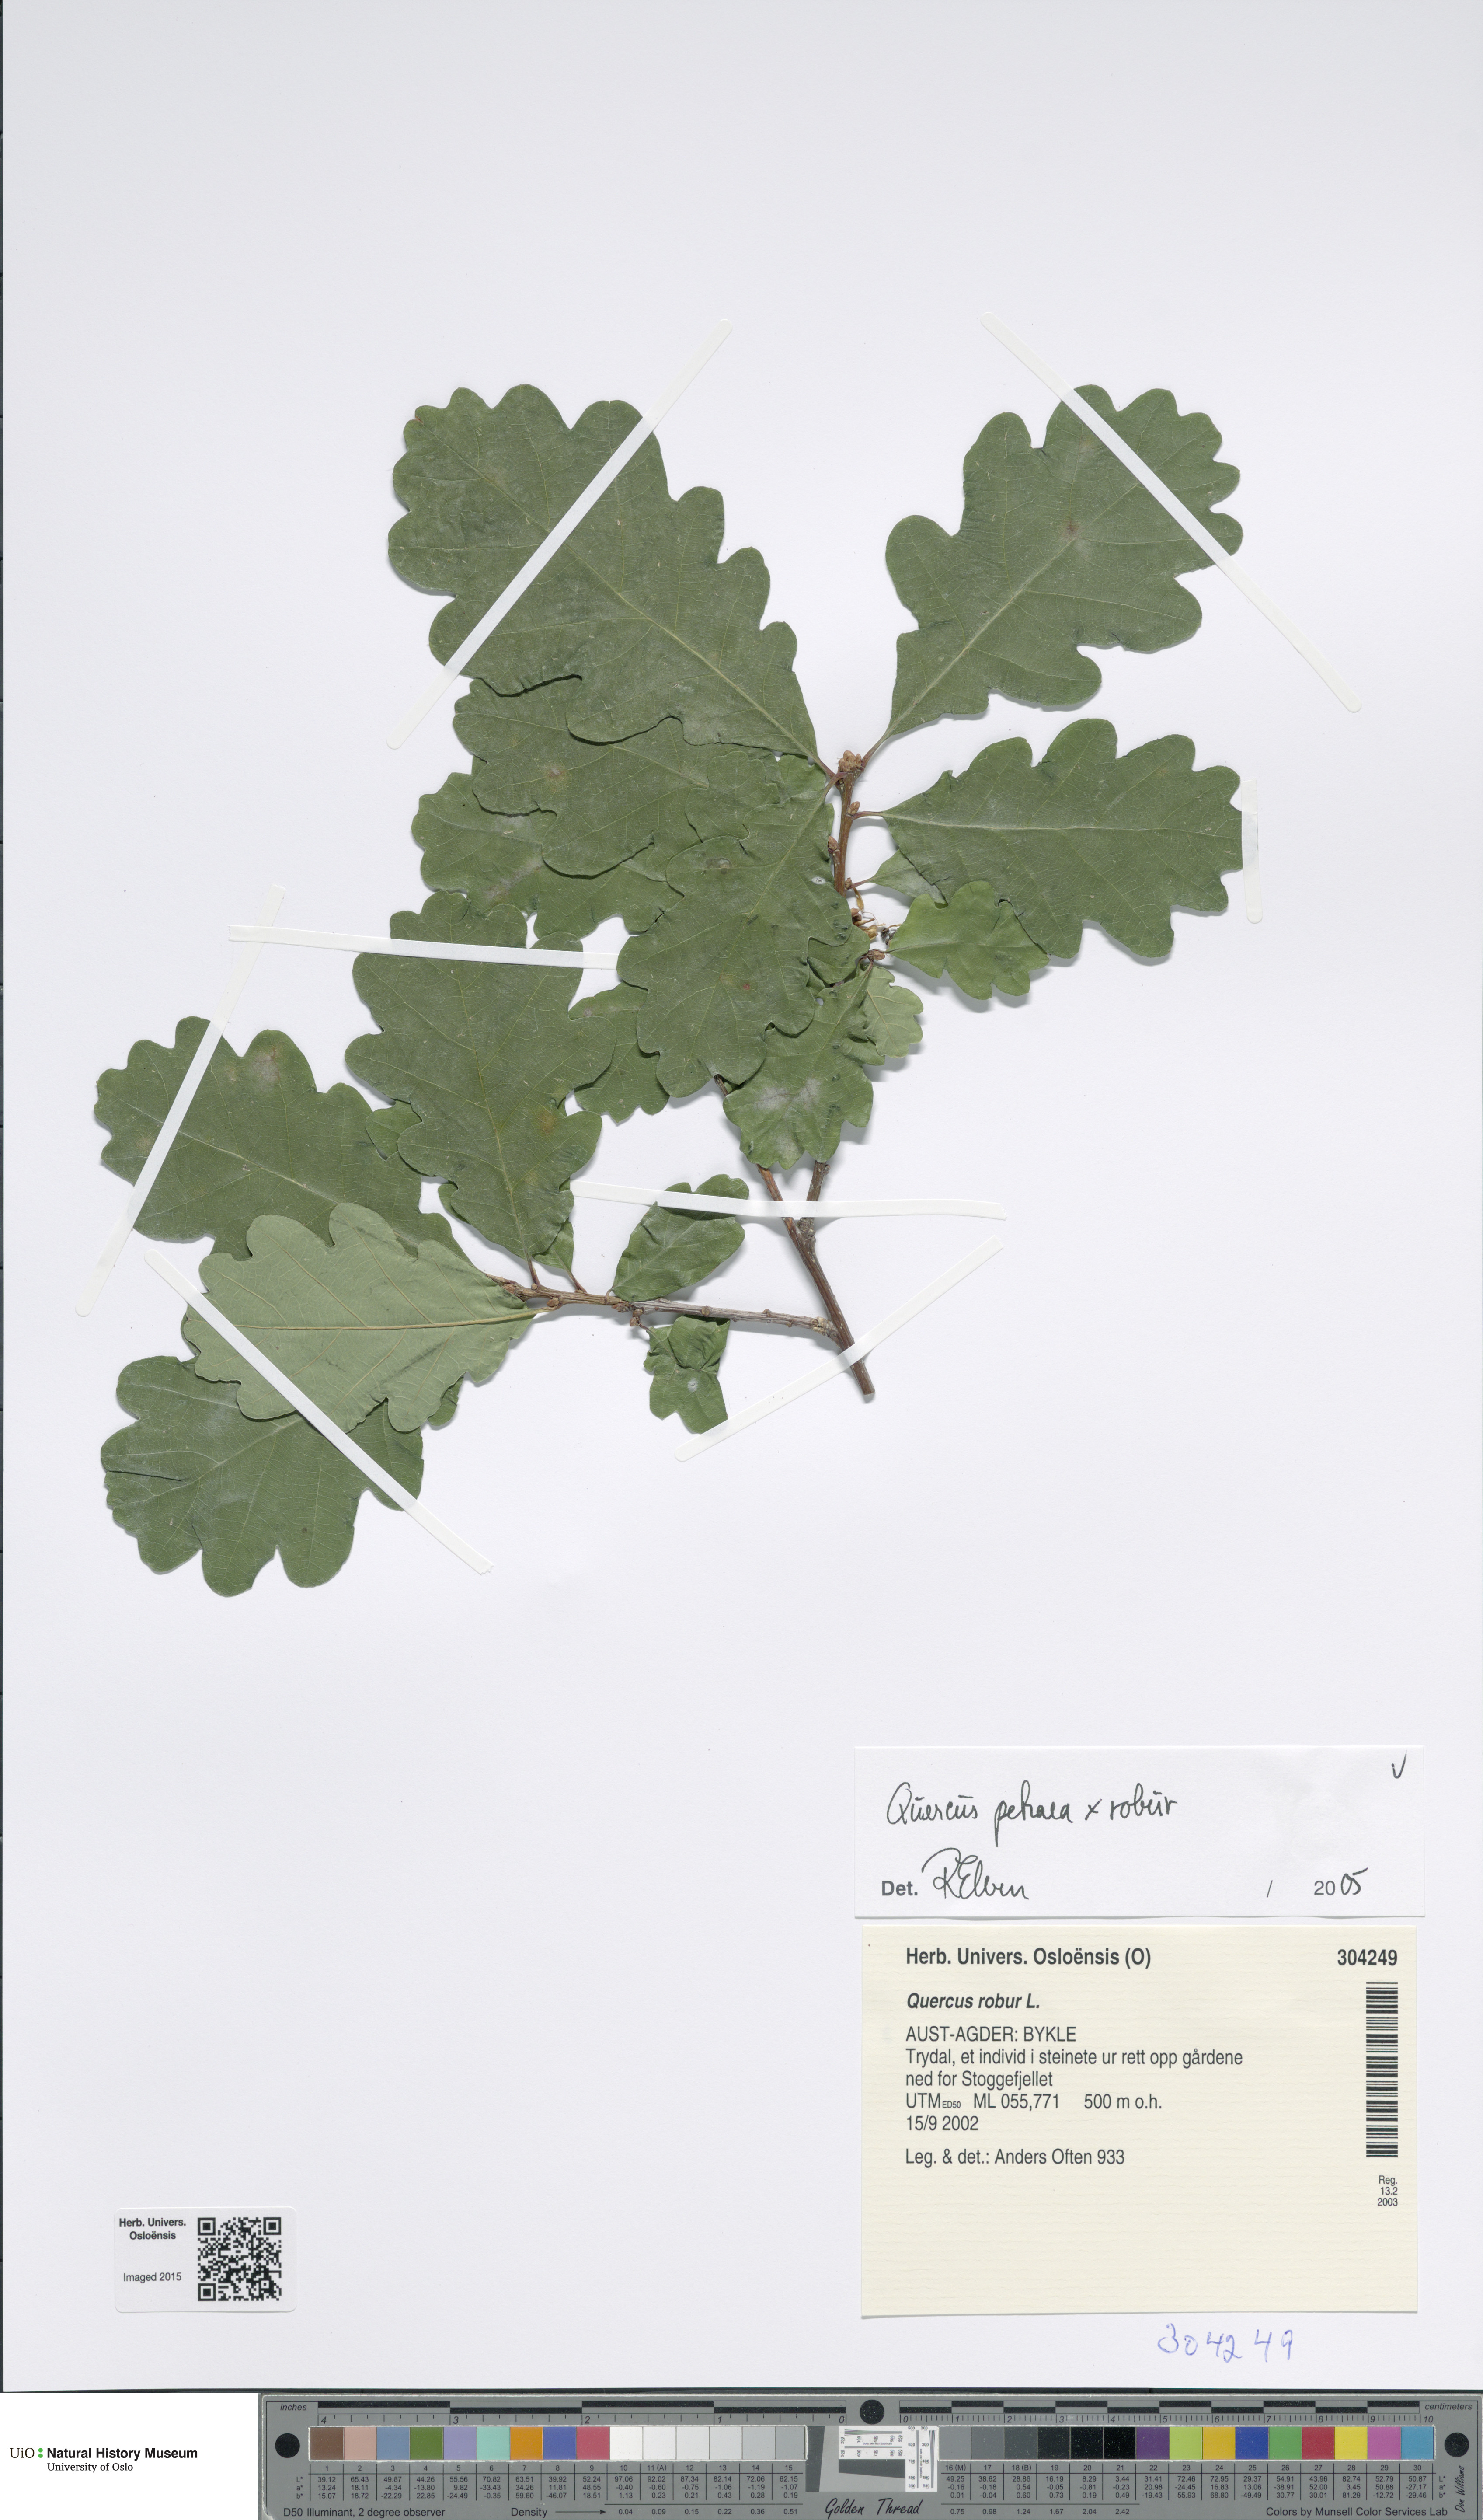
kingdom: Plantae
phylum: Tracheophyta
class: Magnoliopsida
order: Fagales
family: Fagaceae
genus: Quercus
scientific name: Quercus
